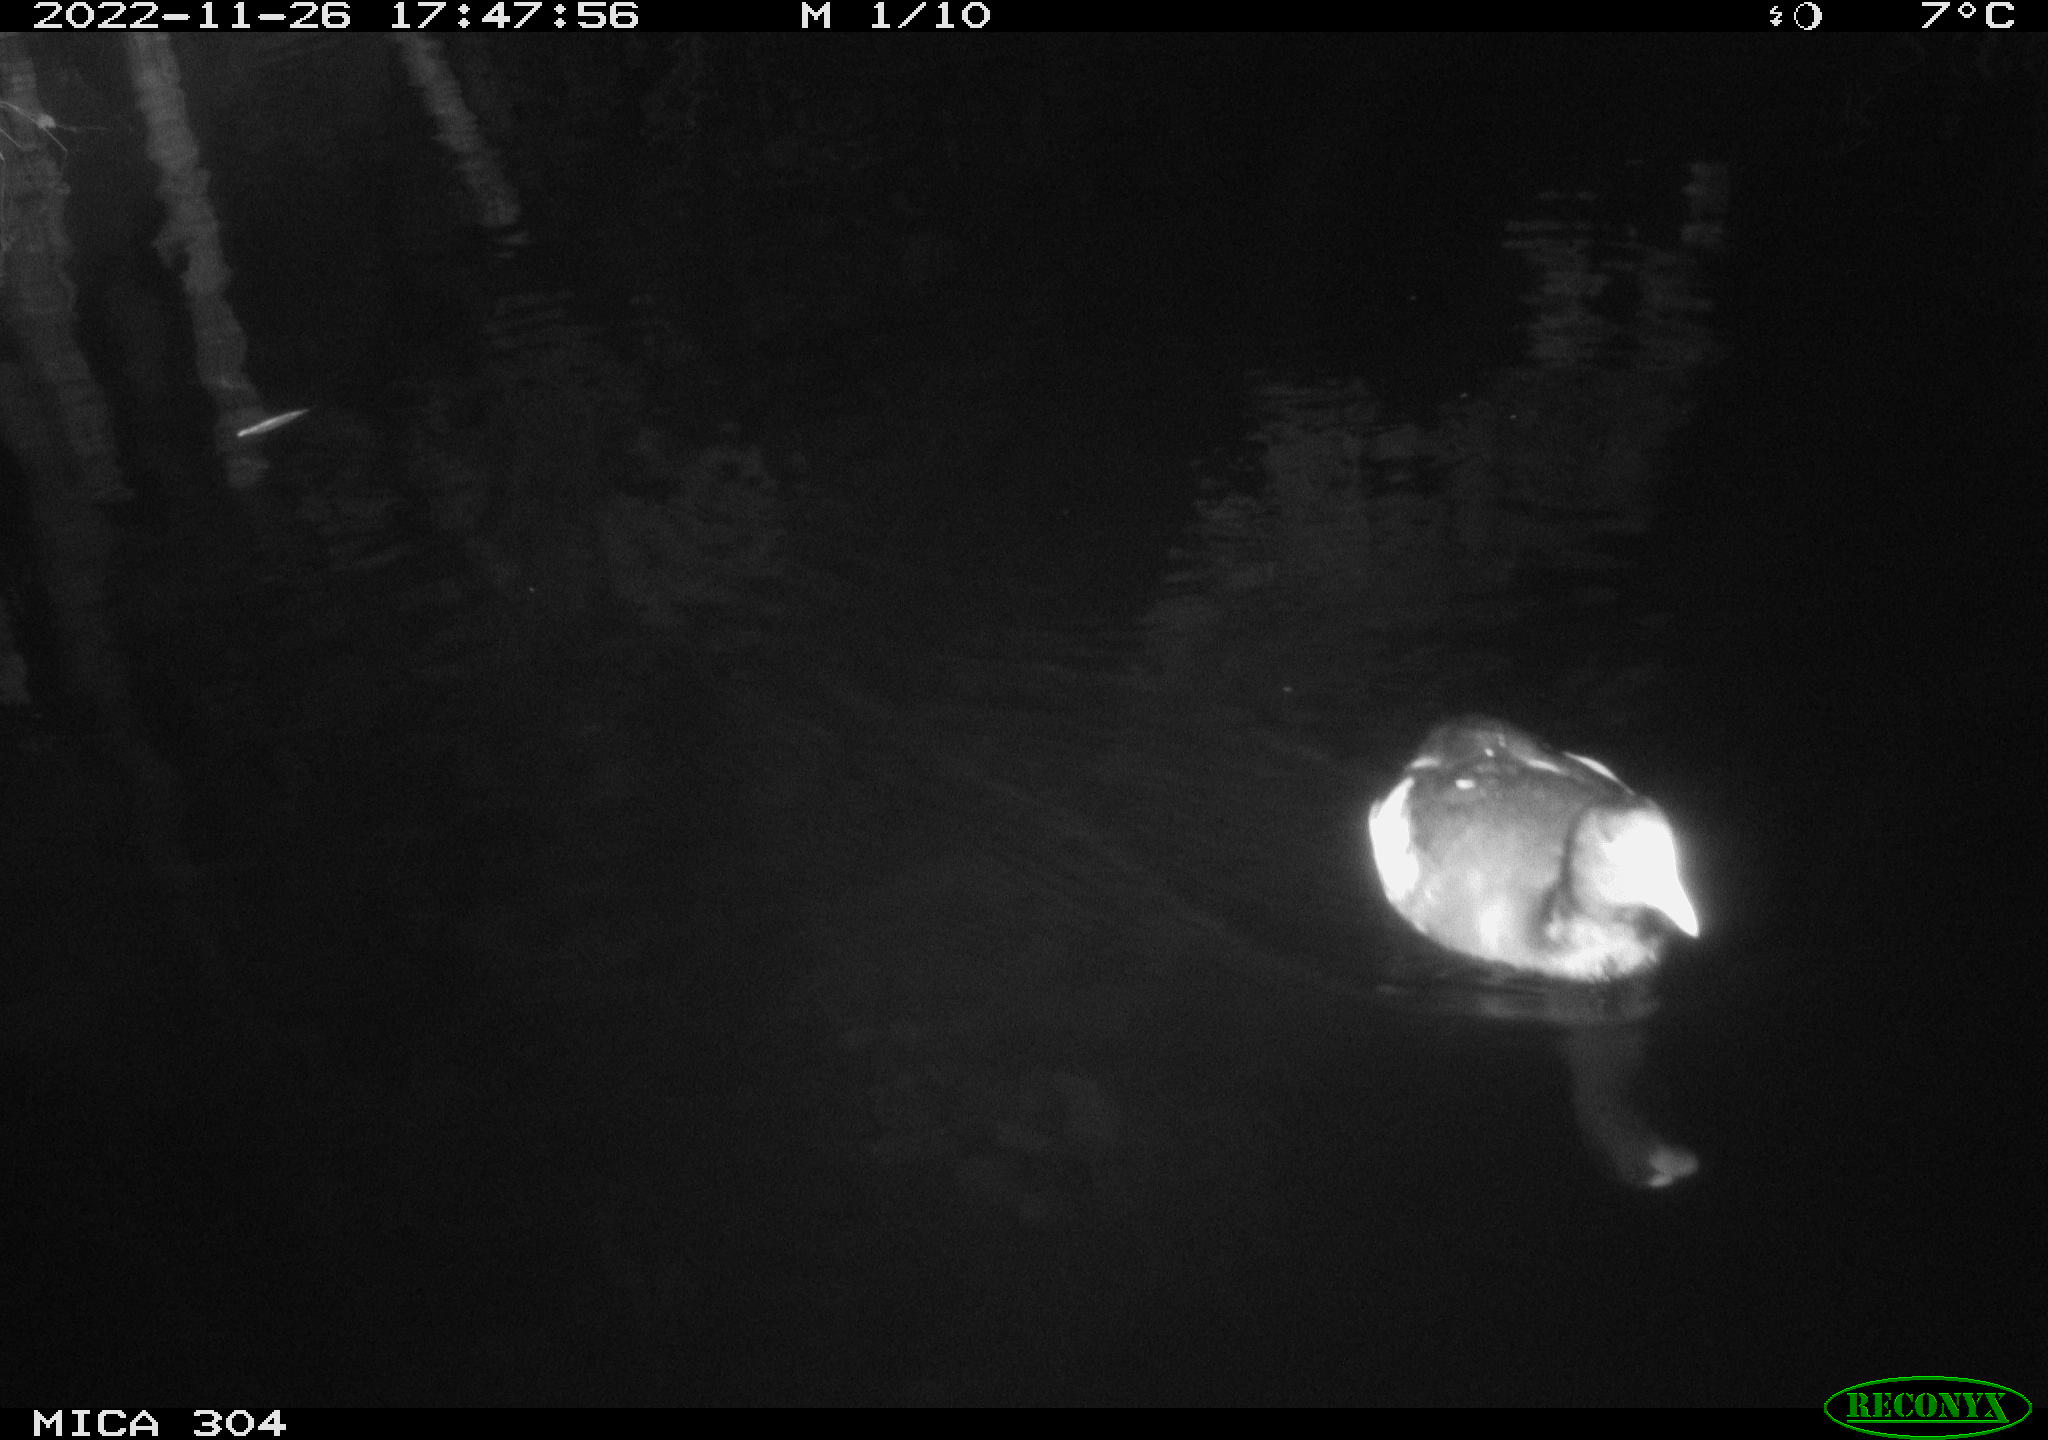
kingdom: Animalia
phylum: Chordata
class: Aves
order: Anseriformes
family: Anatidae
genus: Anas
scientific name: Anas
